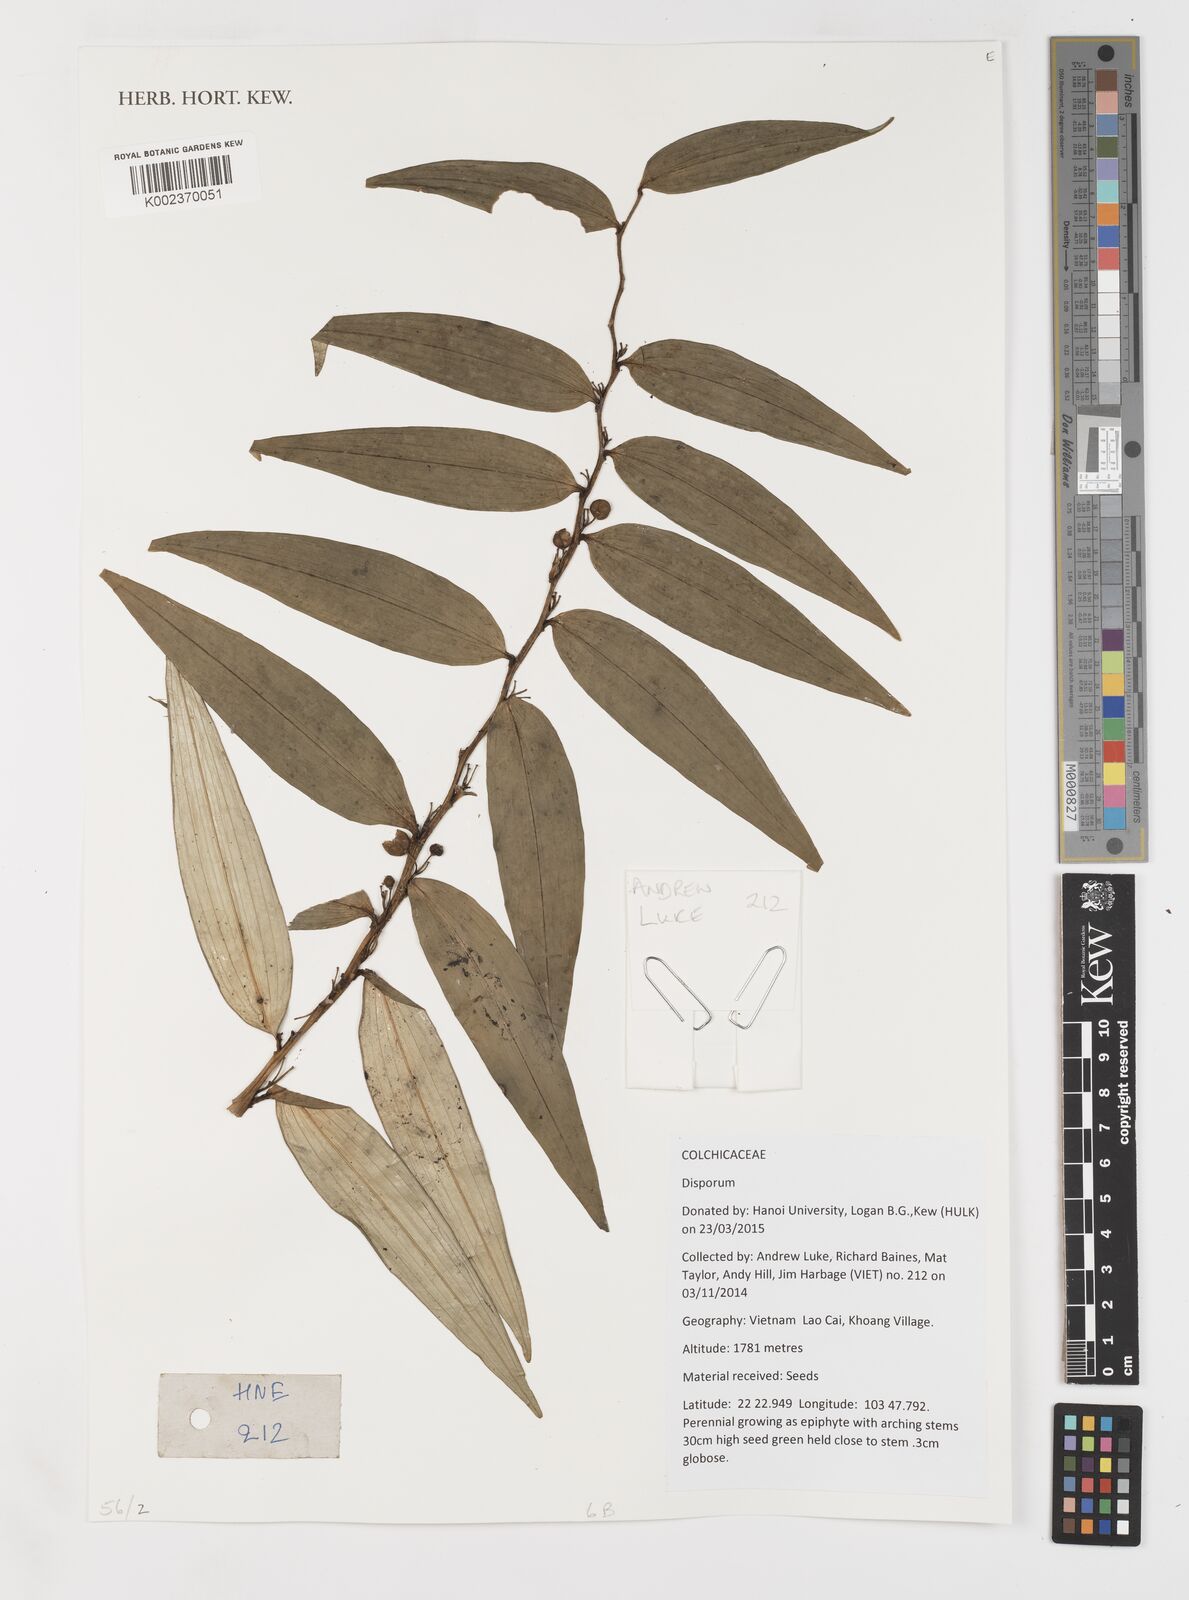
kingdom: Plantae
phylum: Tracheophyta
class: Liliopsida
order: Liliales
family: Colchicaceae
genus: Disporum
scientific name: Disporum
